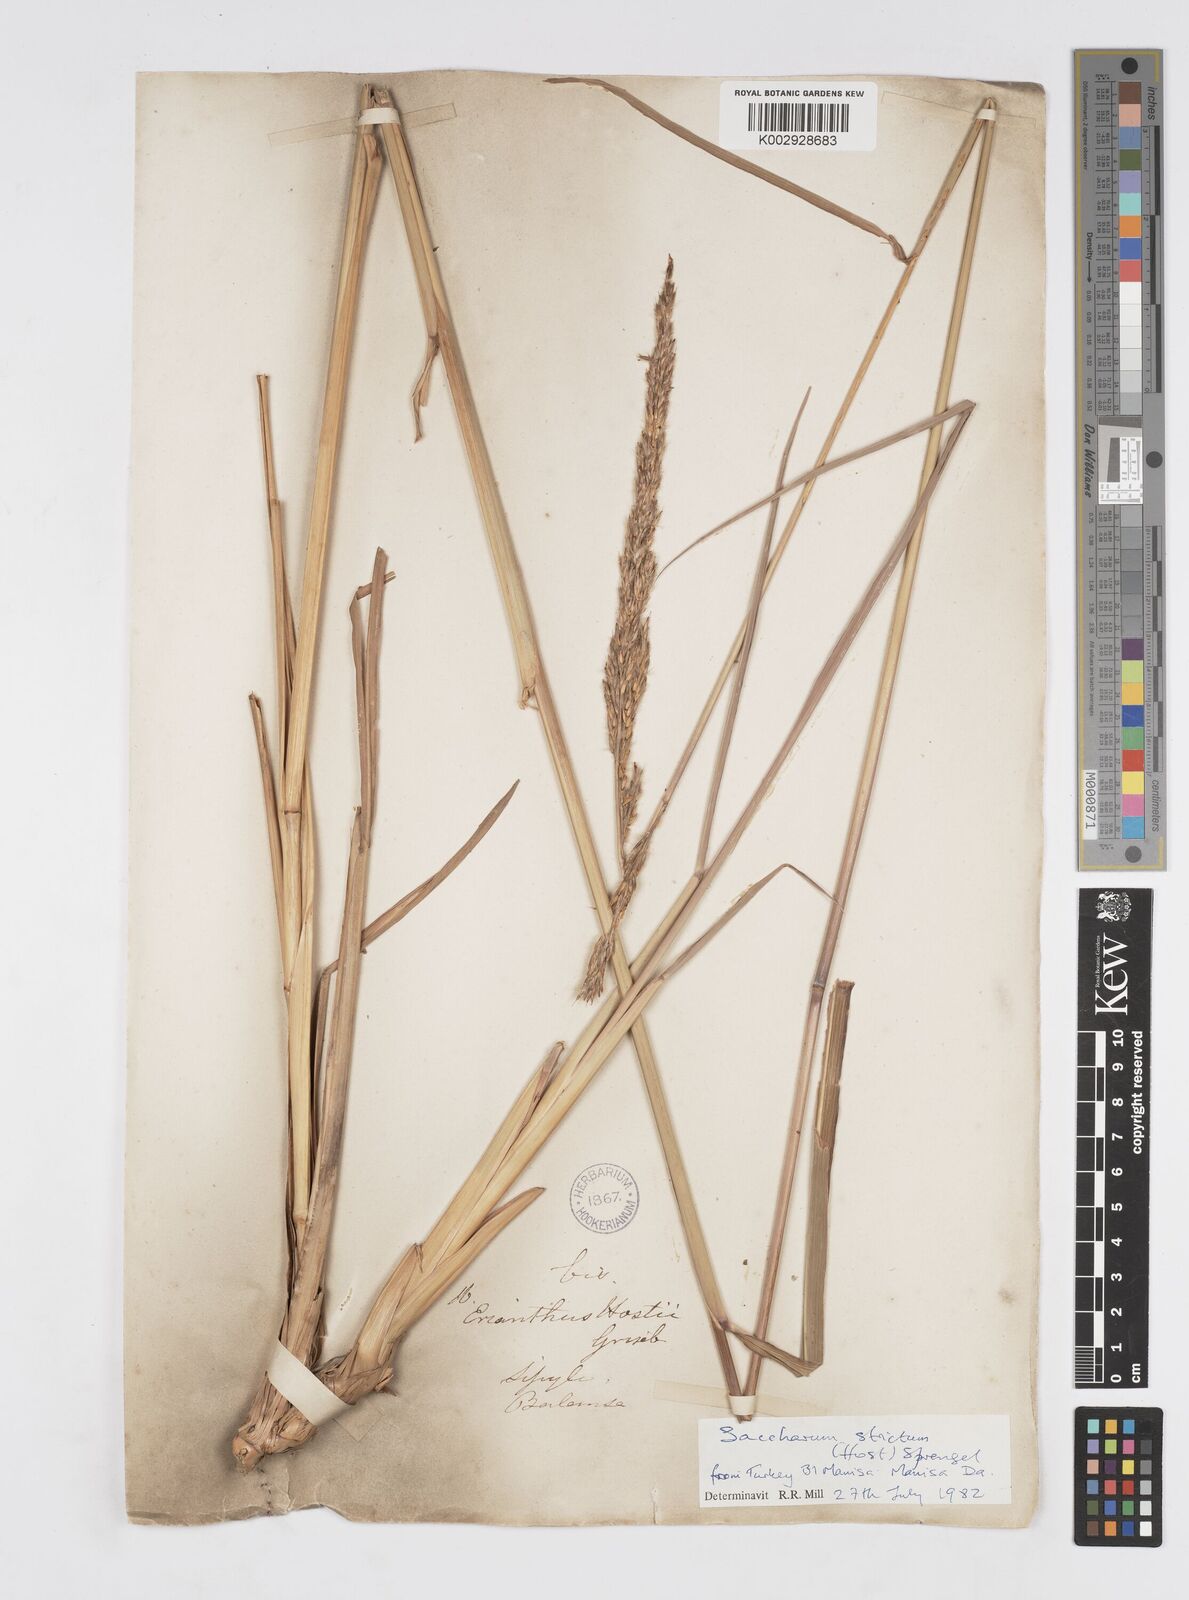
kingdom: Plantae
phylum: Tracheophyta
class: Liliopsida
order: Poales
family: Poaceae
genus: Tripidium
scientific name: Tripidium strictum
